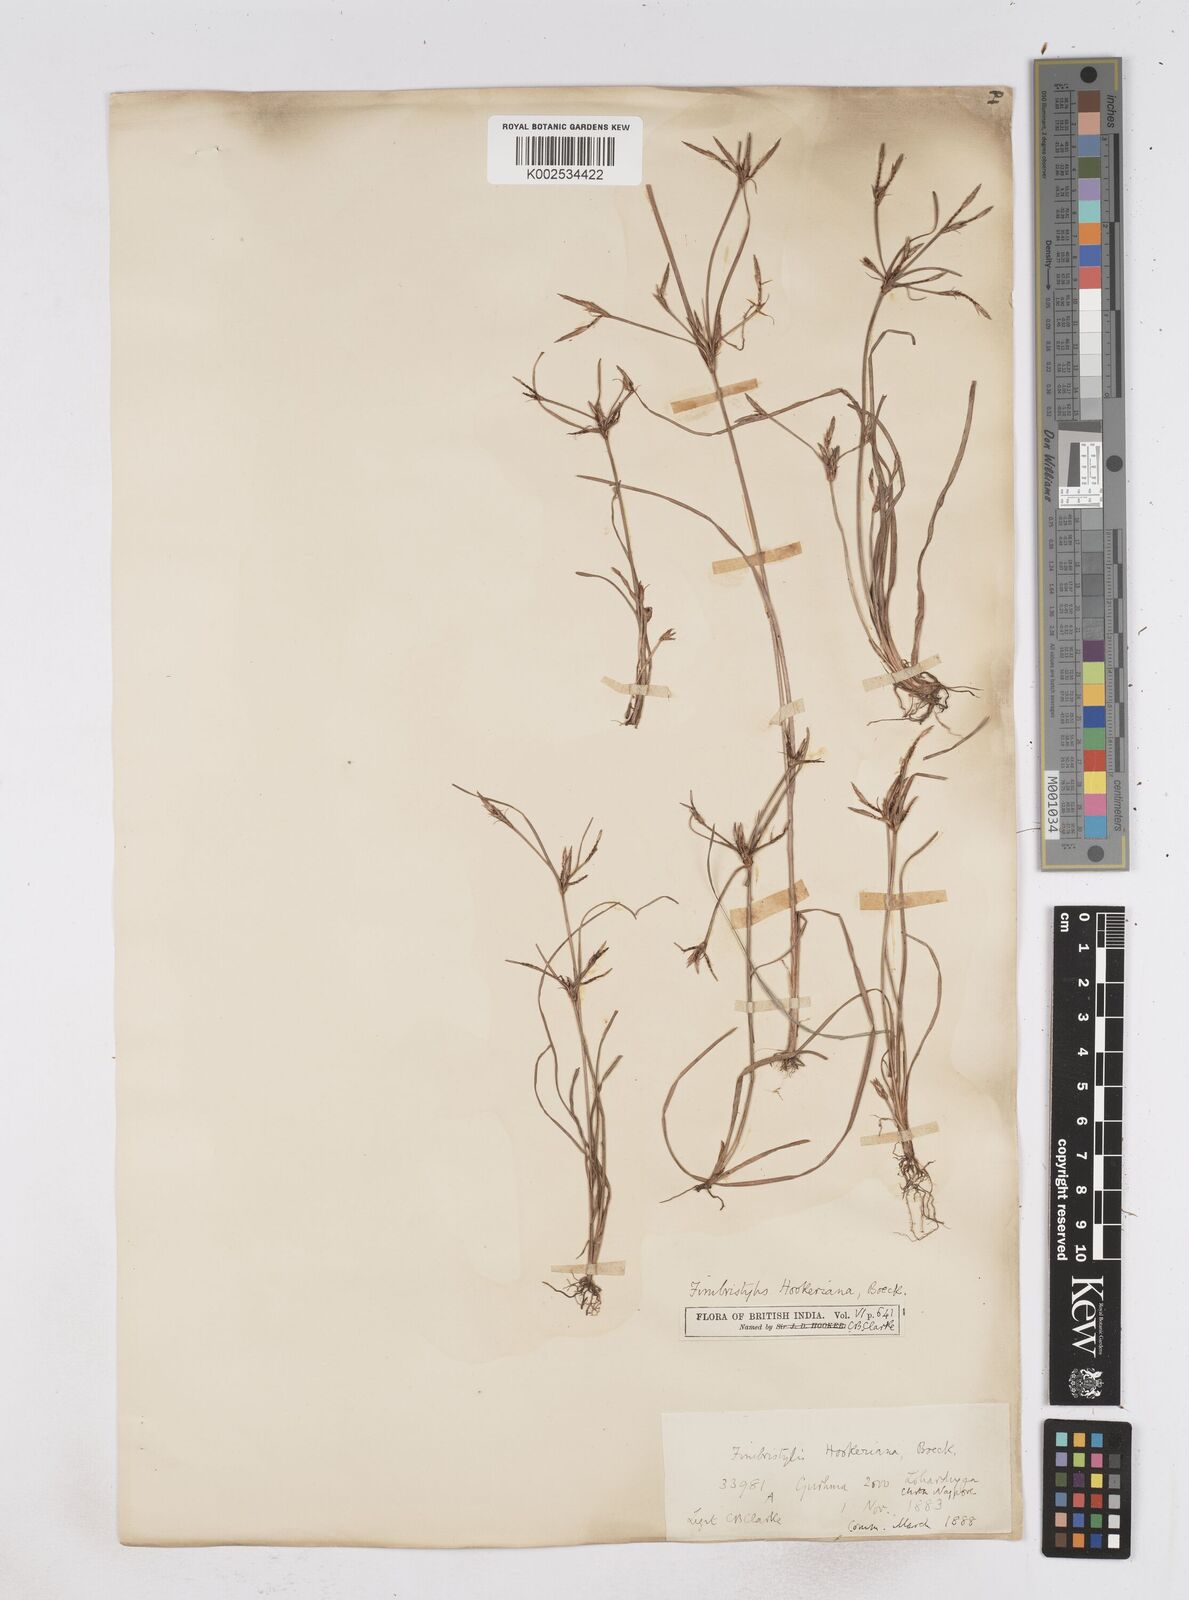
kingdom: Plantae
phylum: Tracheophyta
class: Liliopsida
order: Poales
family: Cyperaceae
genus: Fimbristylis
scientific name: Fimbristylis hookeriana
